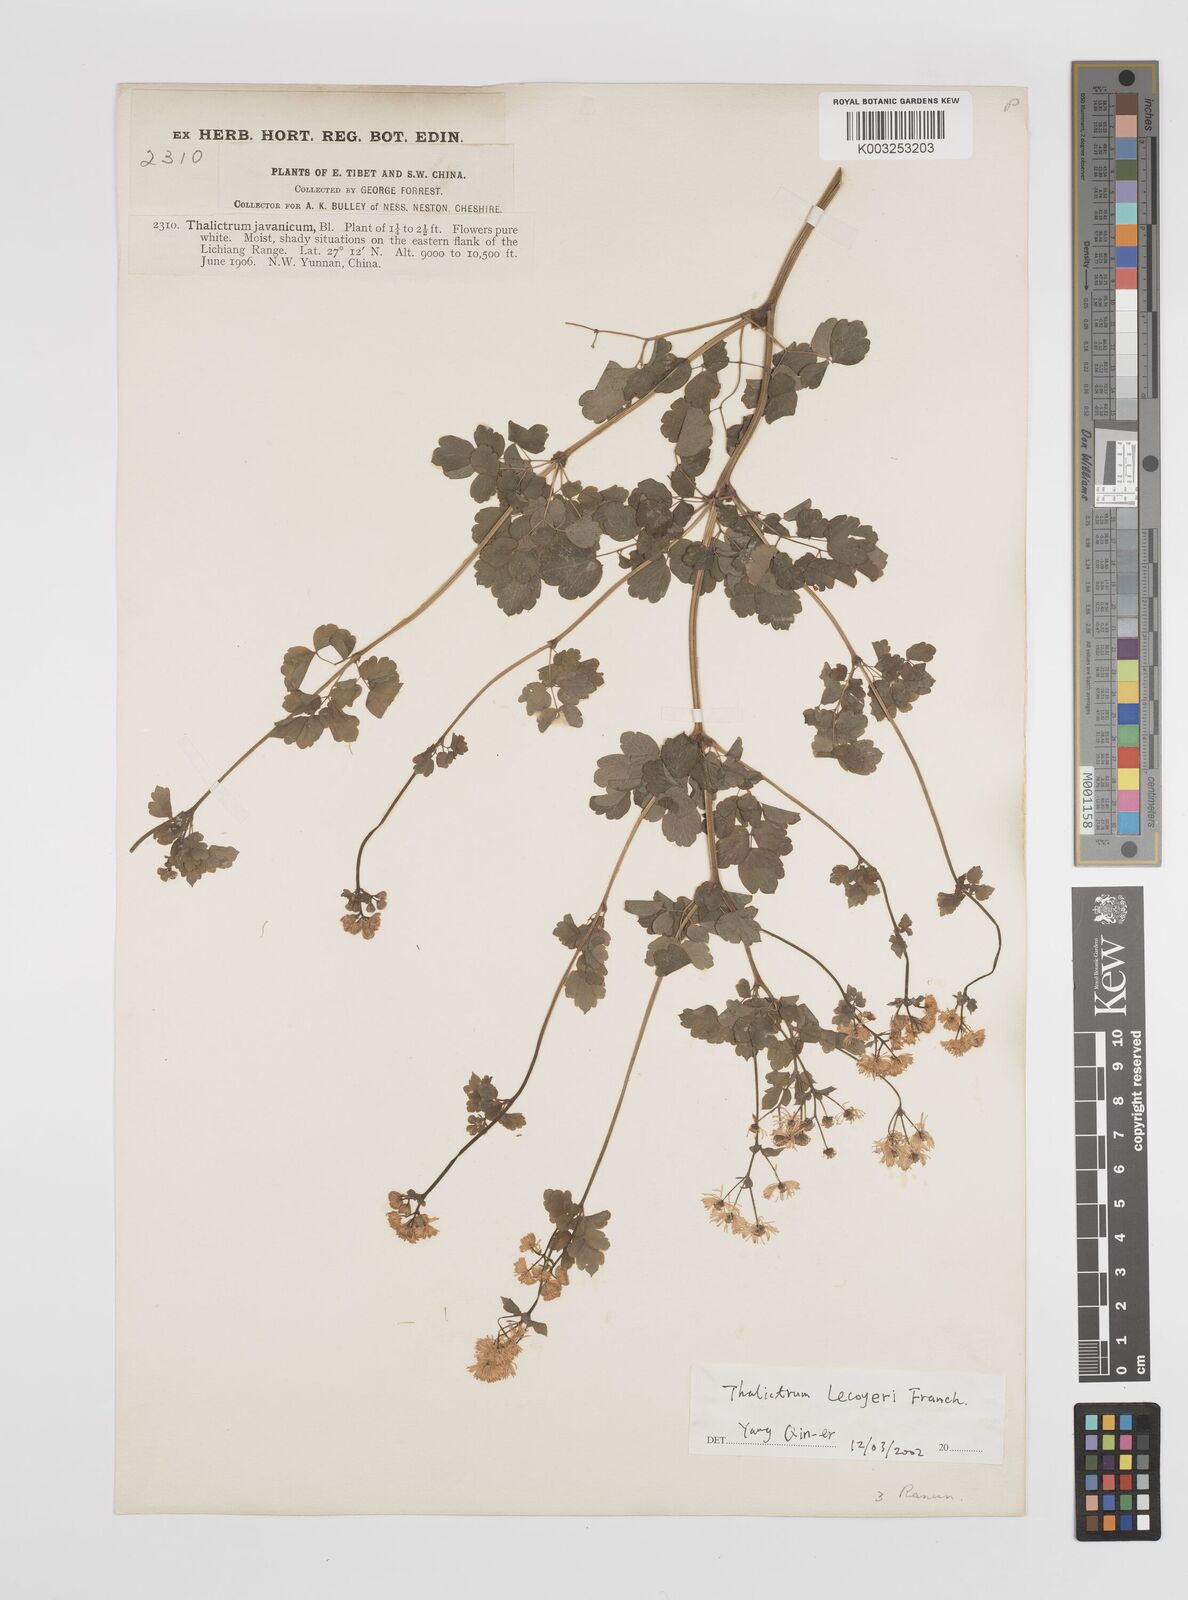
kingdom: Plantae
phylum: Tracheophyta
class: Magnoliopsida
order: Ranunculales
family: Ranunculaceae
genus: Thalictrum
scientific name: Thalictrum javanicum
